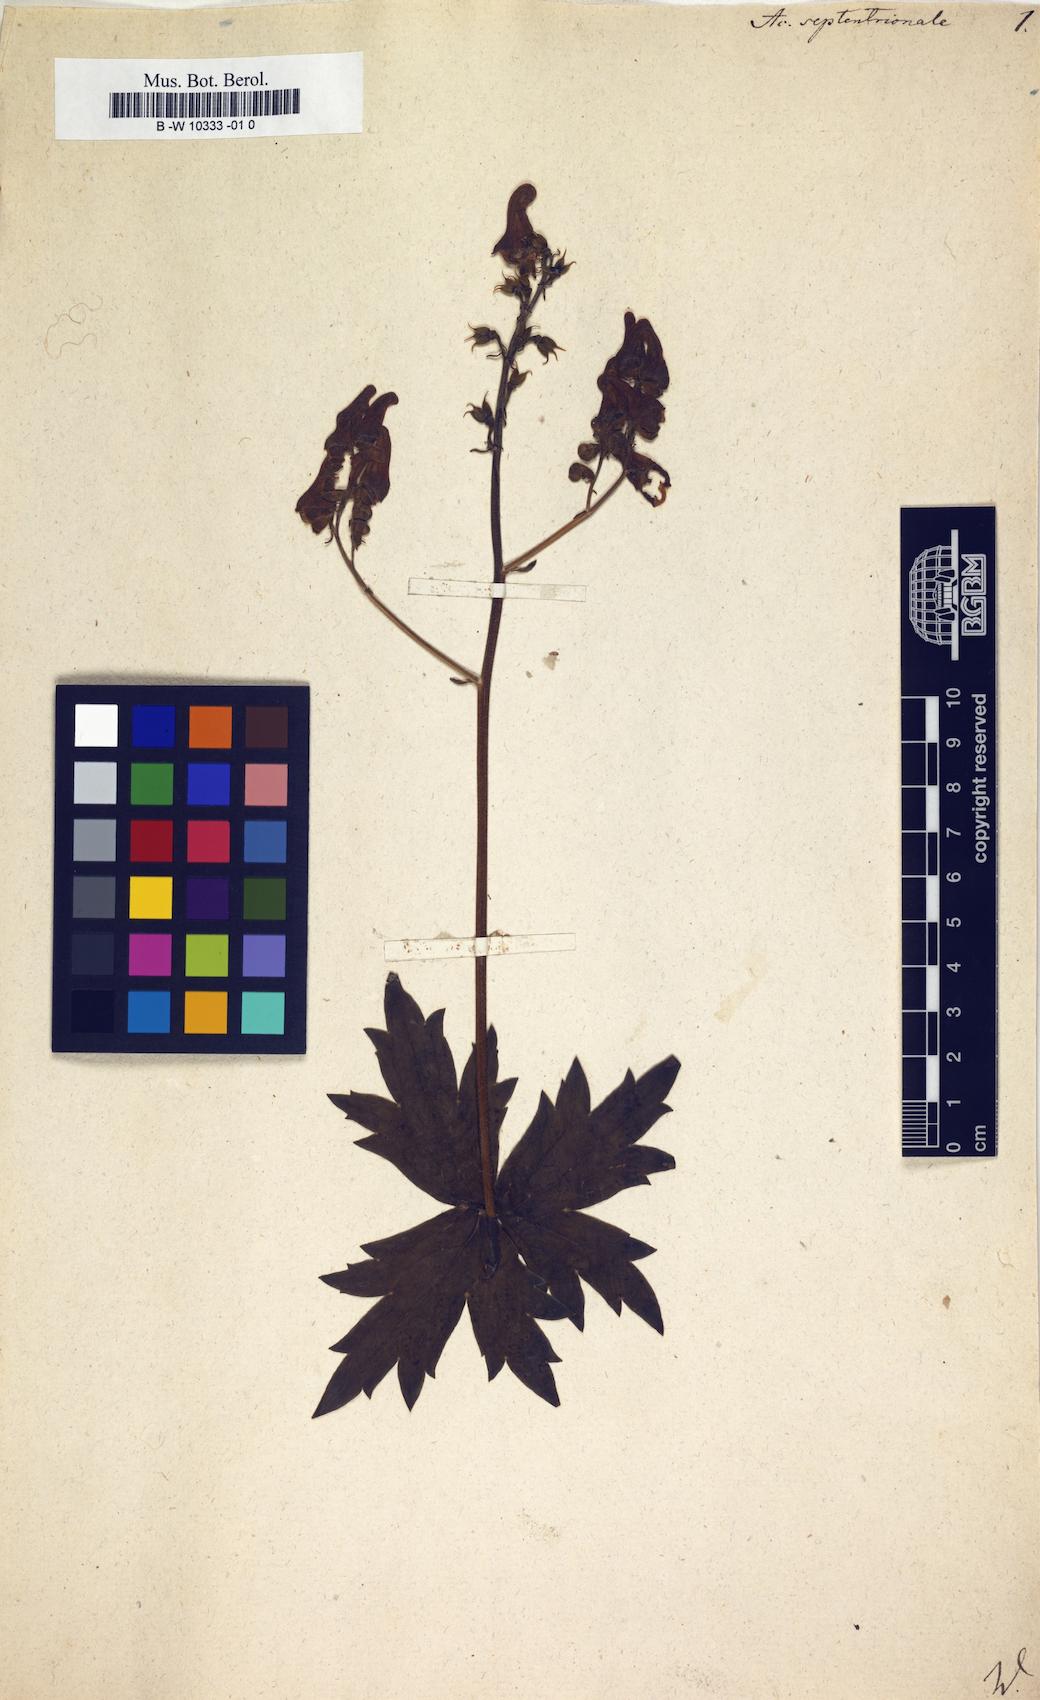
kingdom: Plantae
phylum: Tracheophyta
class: Magnoliopsida
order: Ranunculales
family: Ranunculaceae
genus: Aconitum
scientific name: Aconitum septentrionale
